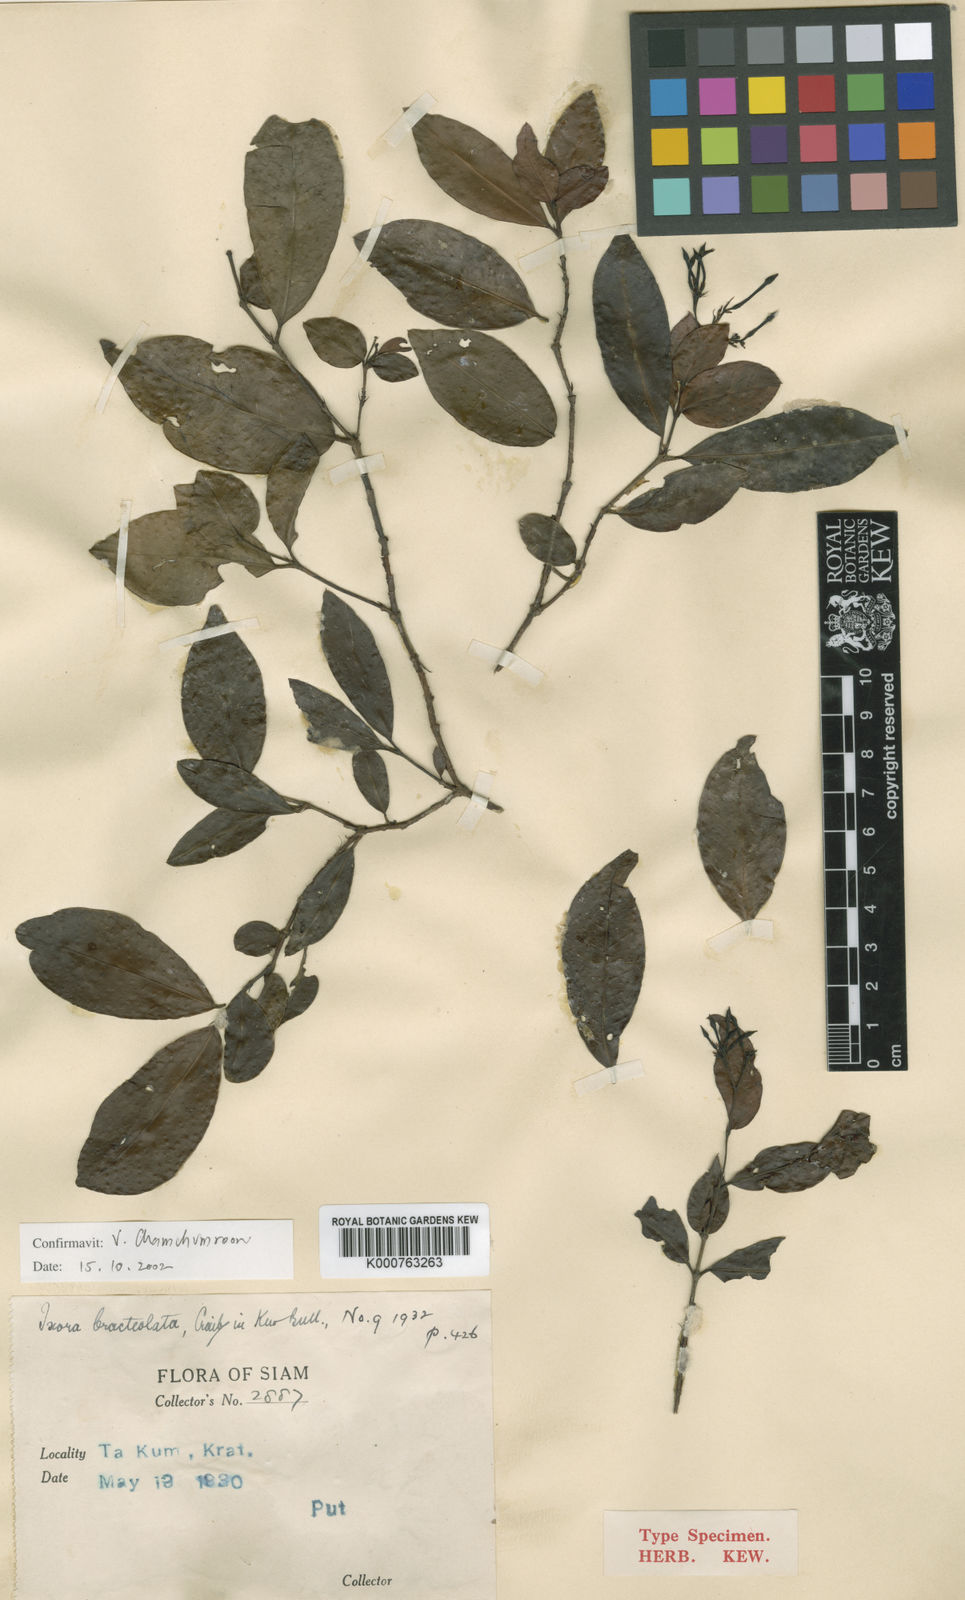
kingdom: Plantae
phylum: Tracheophyta
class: Magnoliopsida
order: Gentianales
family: Rubiaceae
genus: Ixora
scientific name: Ixora bracteolata
